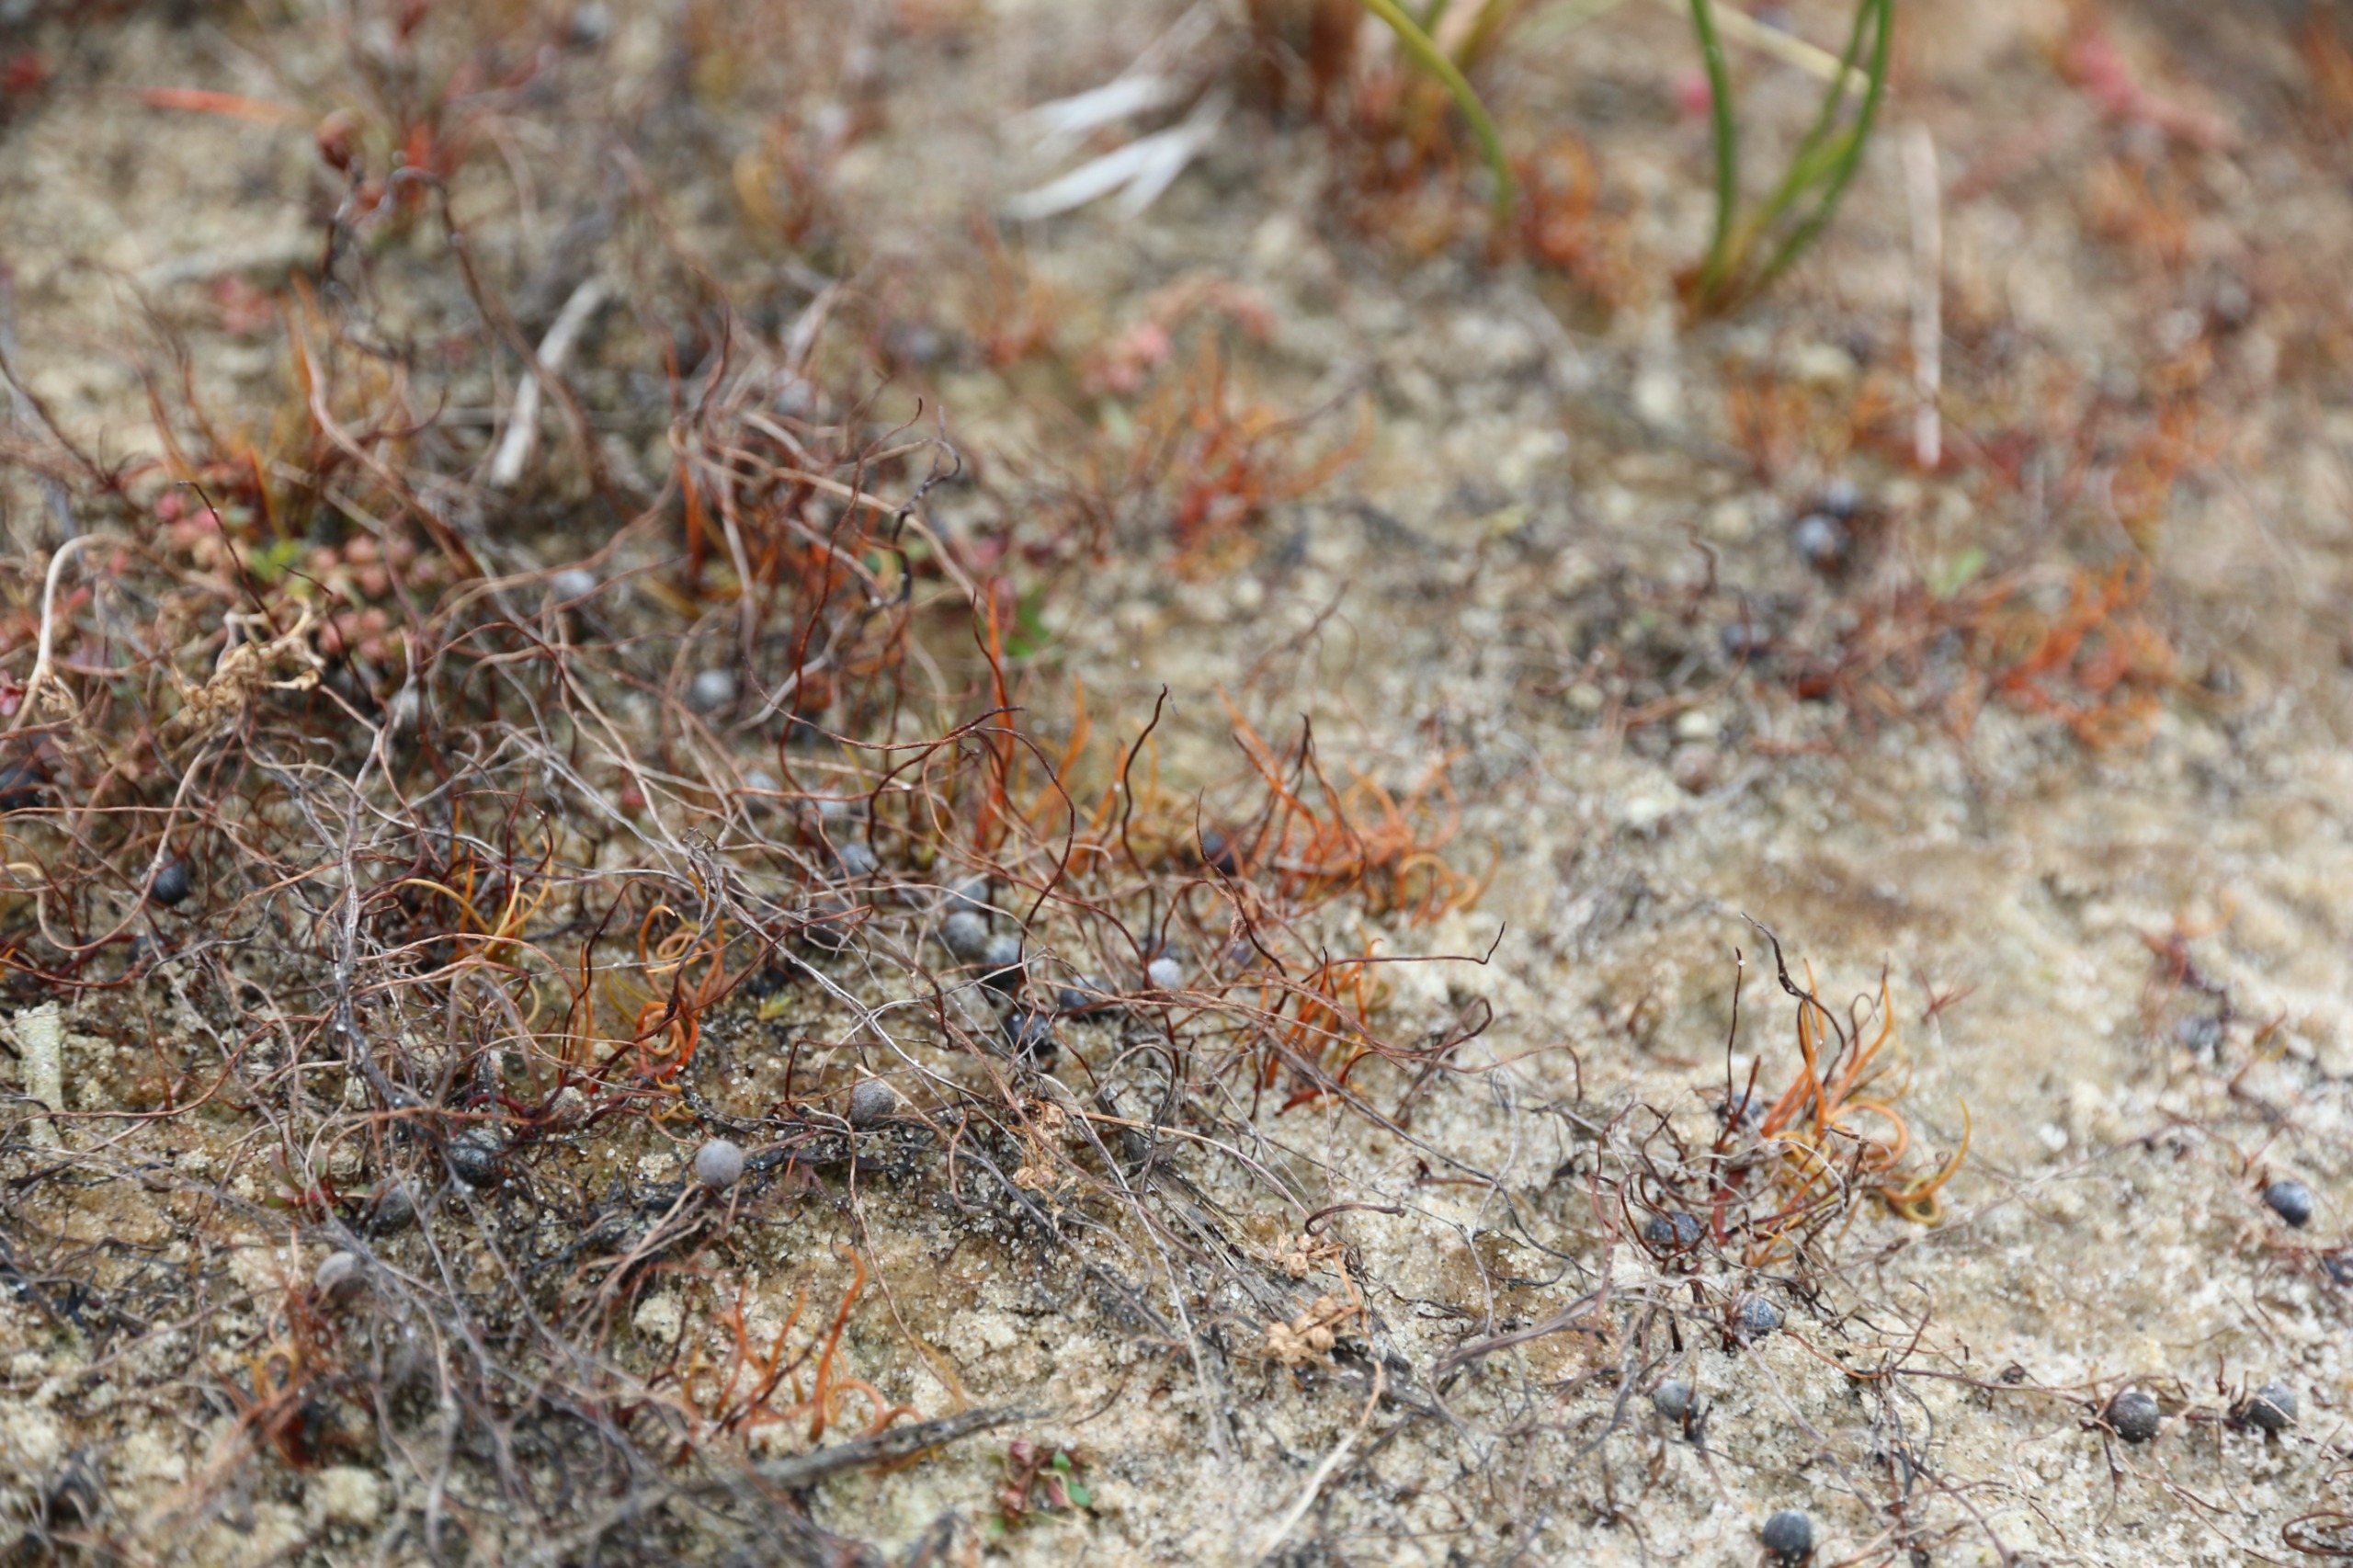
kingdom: Plantae
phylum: Tracheophyta
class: Polypodiopsida
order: Salviniales
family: Marsileaceae
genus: Pilularia
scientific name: Pilularia globulifera
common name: Pilledrager
